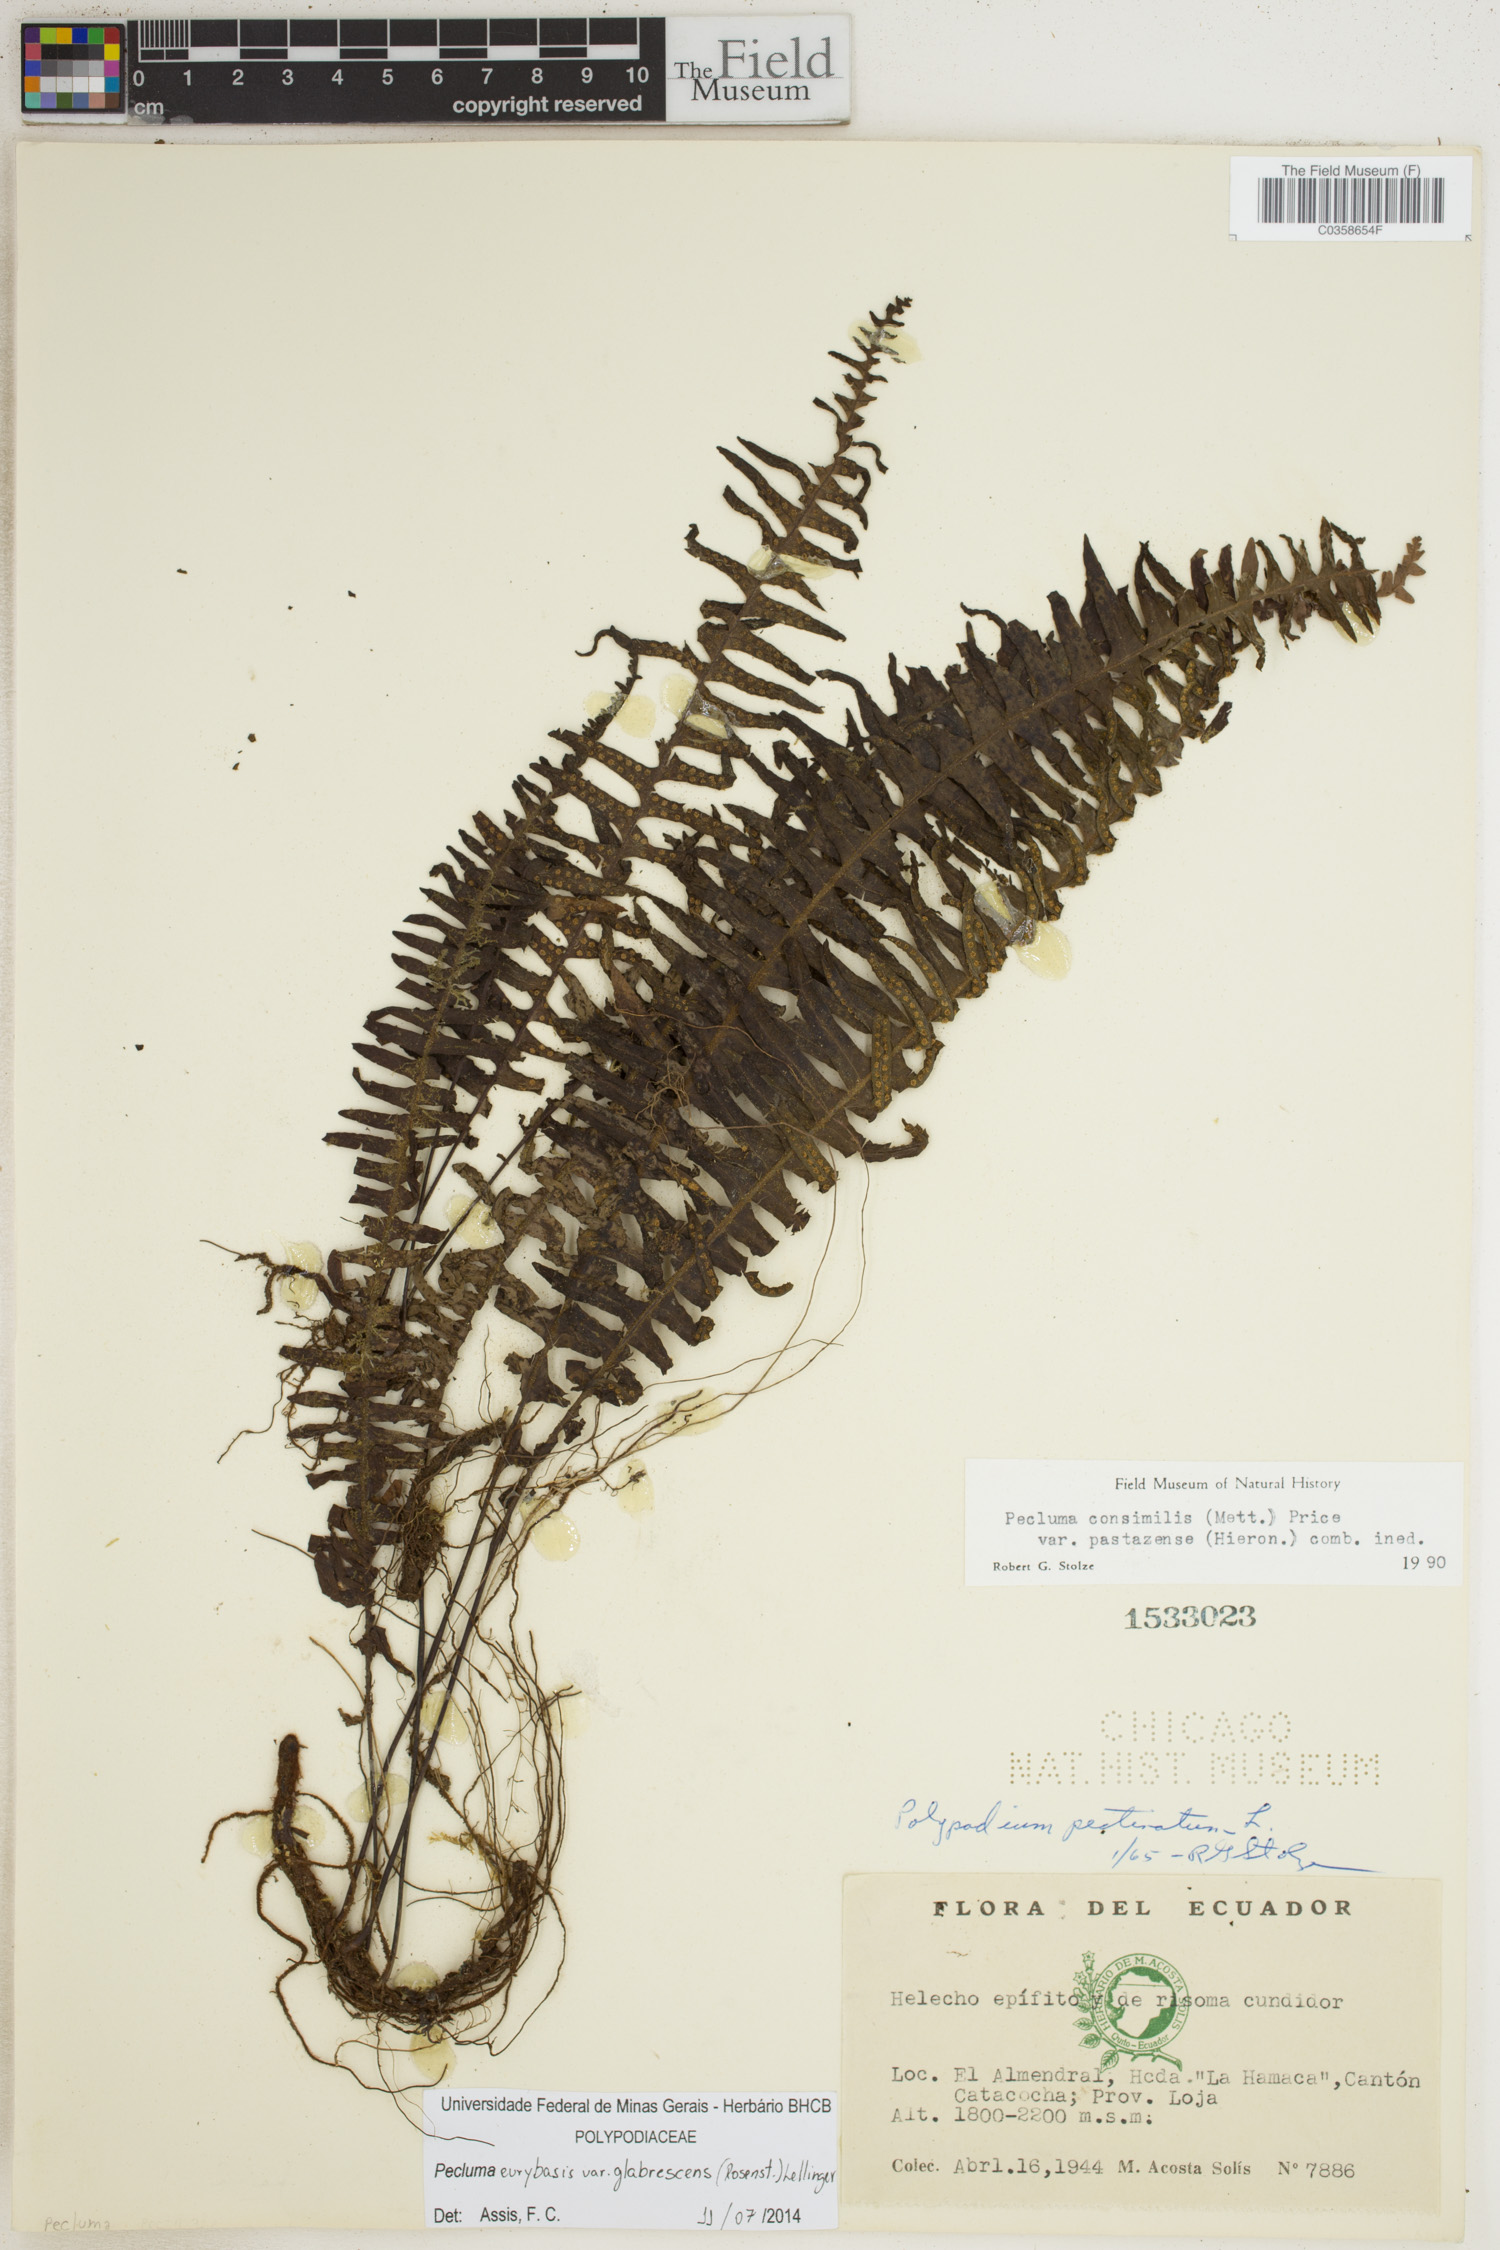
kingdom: Plantae
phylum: Tracheophyta
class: Polypodiopsida
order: Polypodiales
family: Polypodiaceae
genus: Pecluma
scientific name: Pecluma eurybasis
